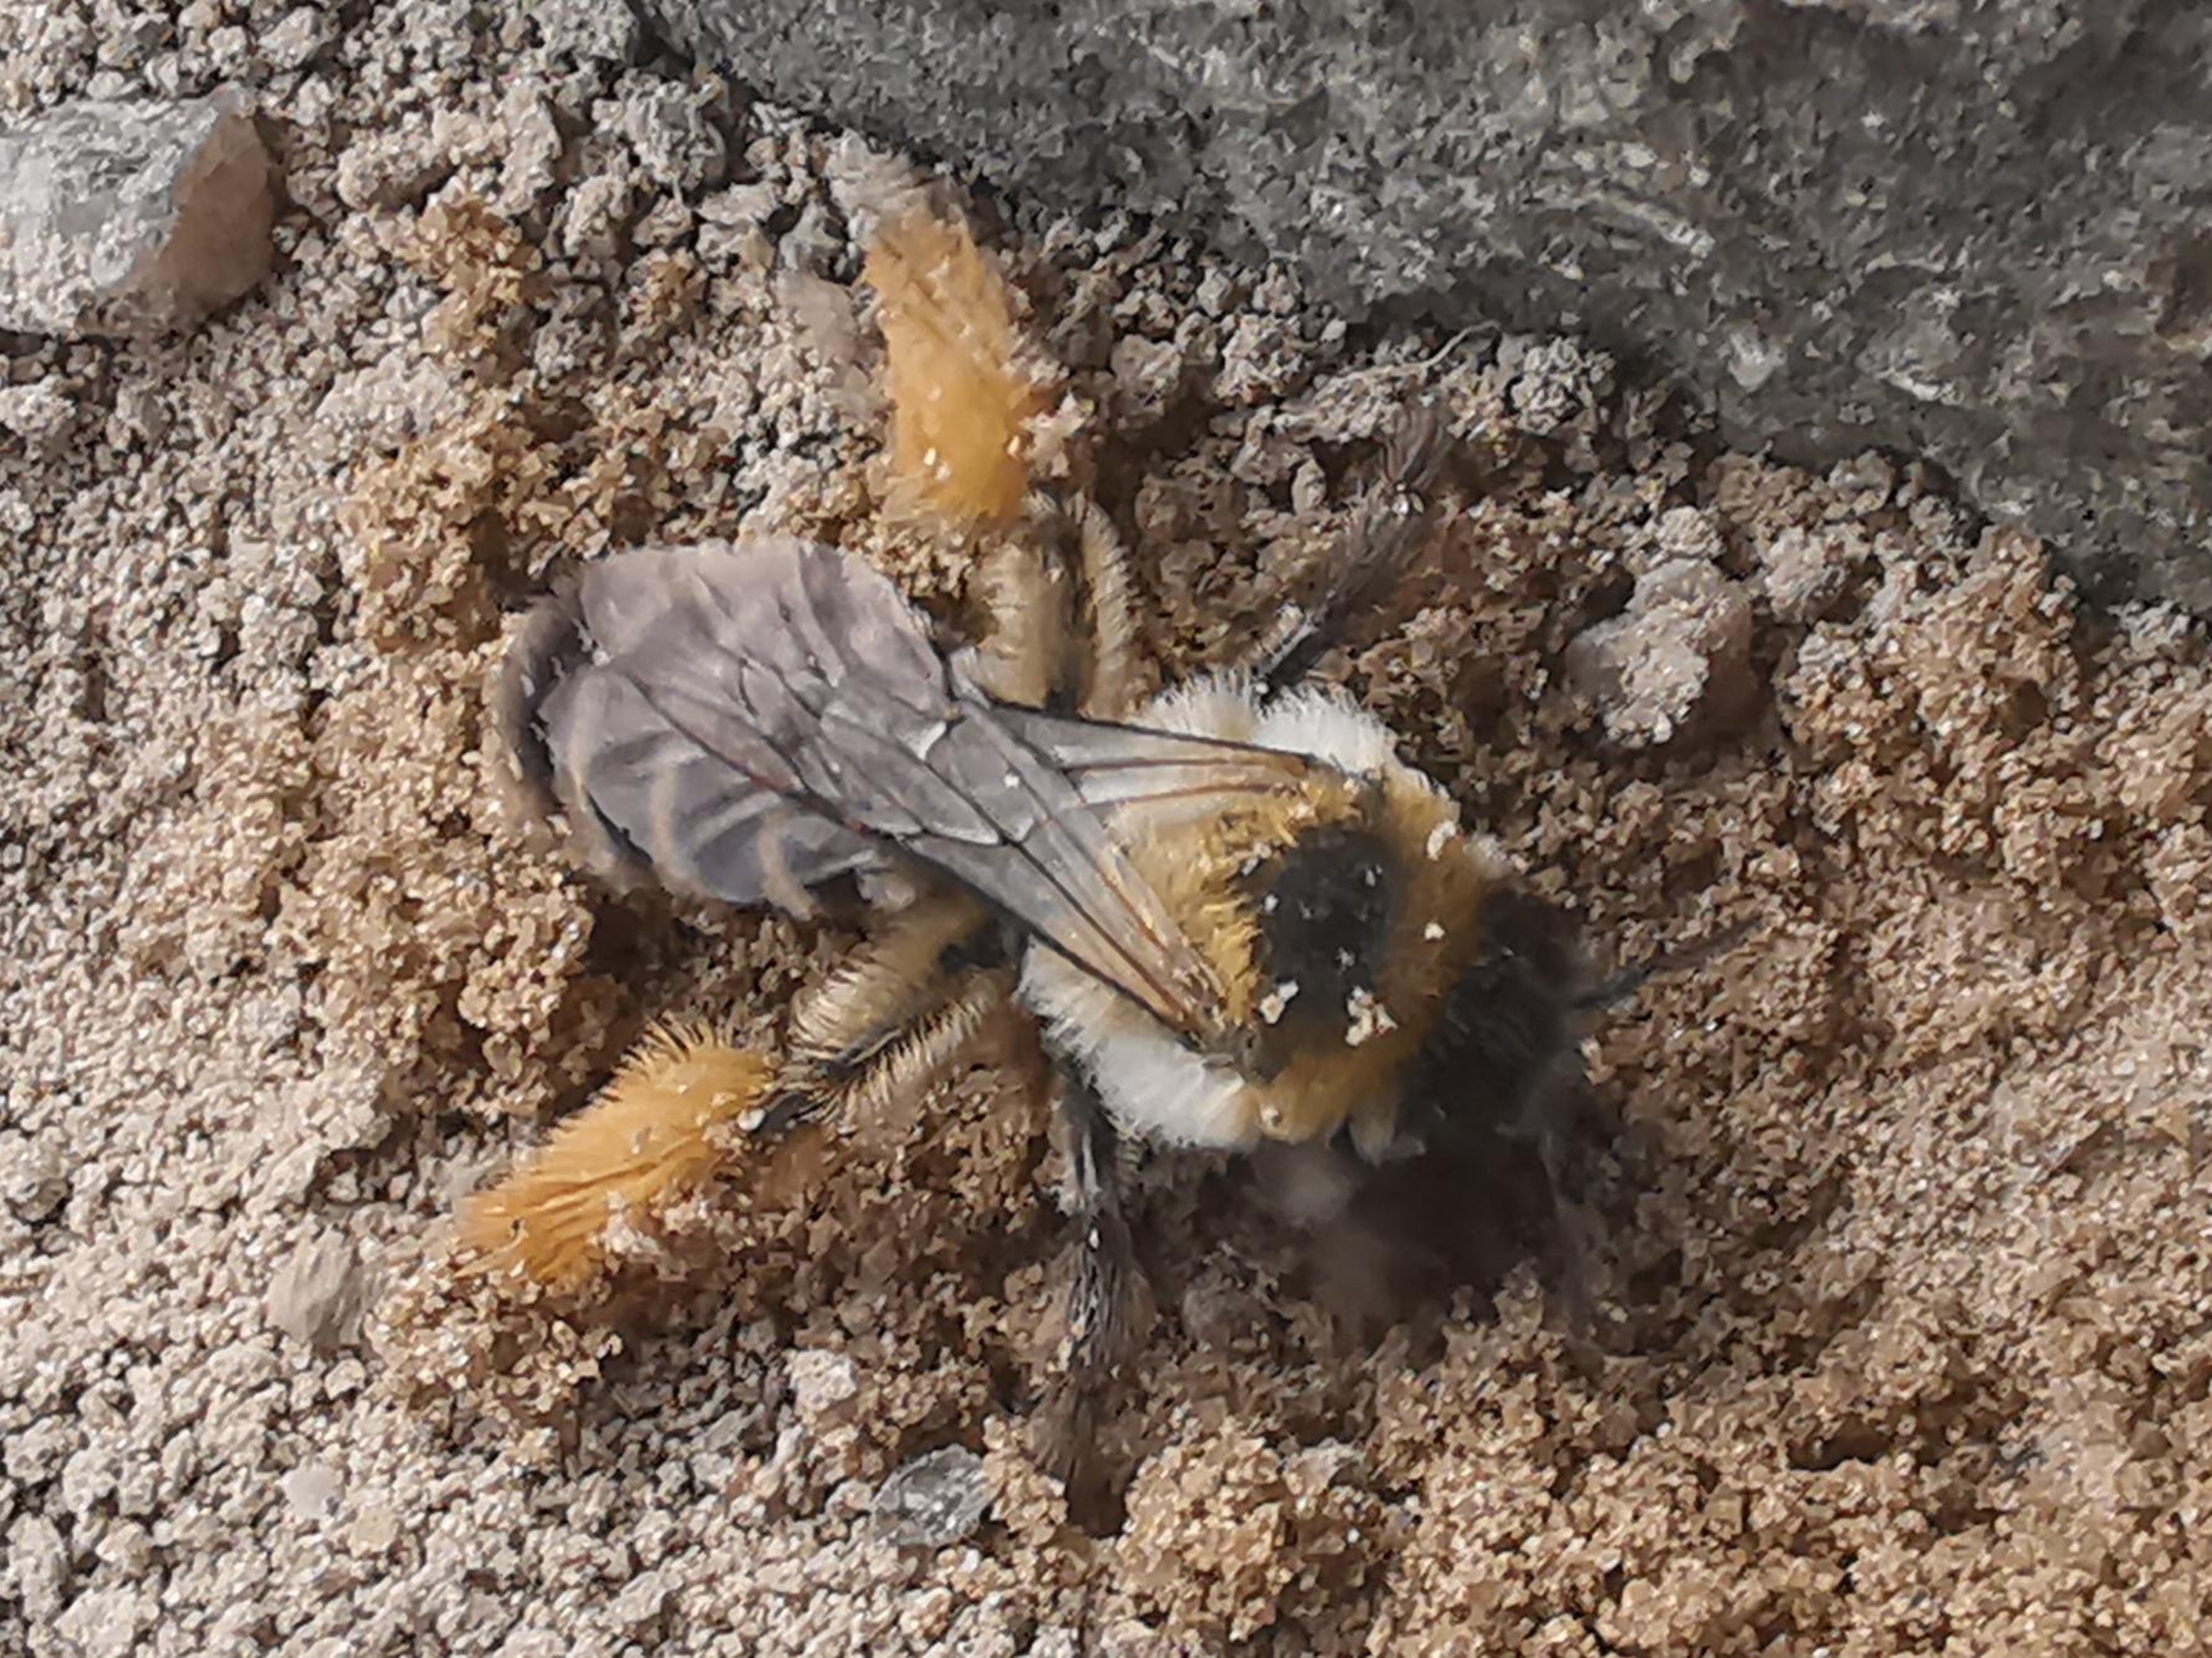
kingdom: Animalia
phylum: Arthropoda
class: Insecta
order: Hymenoptera
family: Melittidae
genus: Dasypoda
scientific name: Dasypoda hirtipes
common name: Pragtbuksebi
